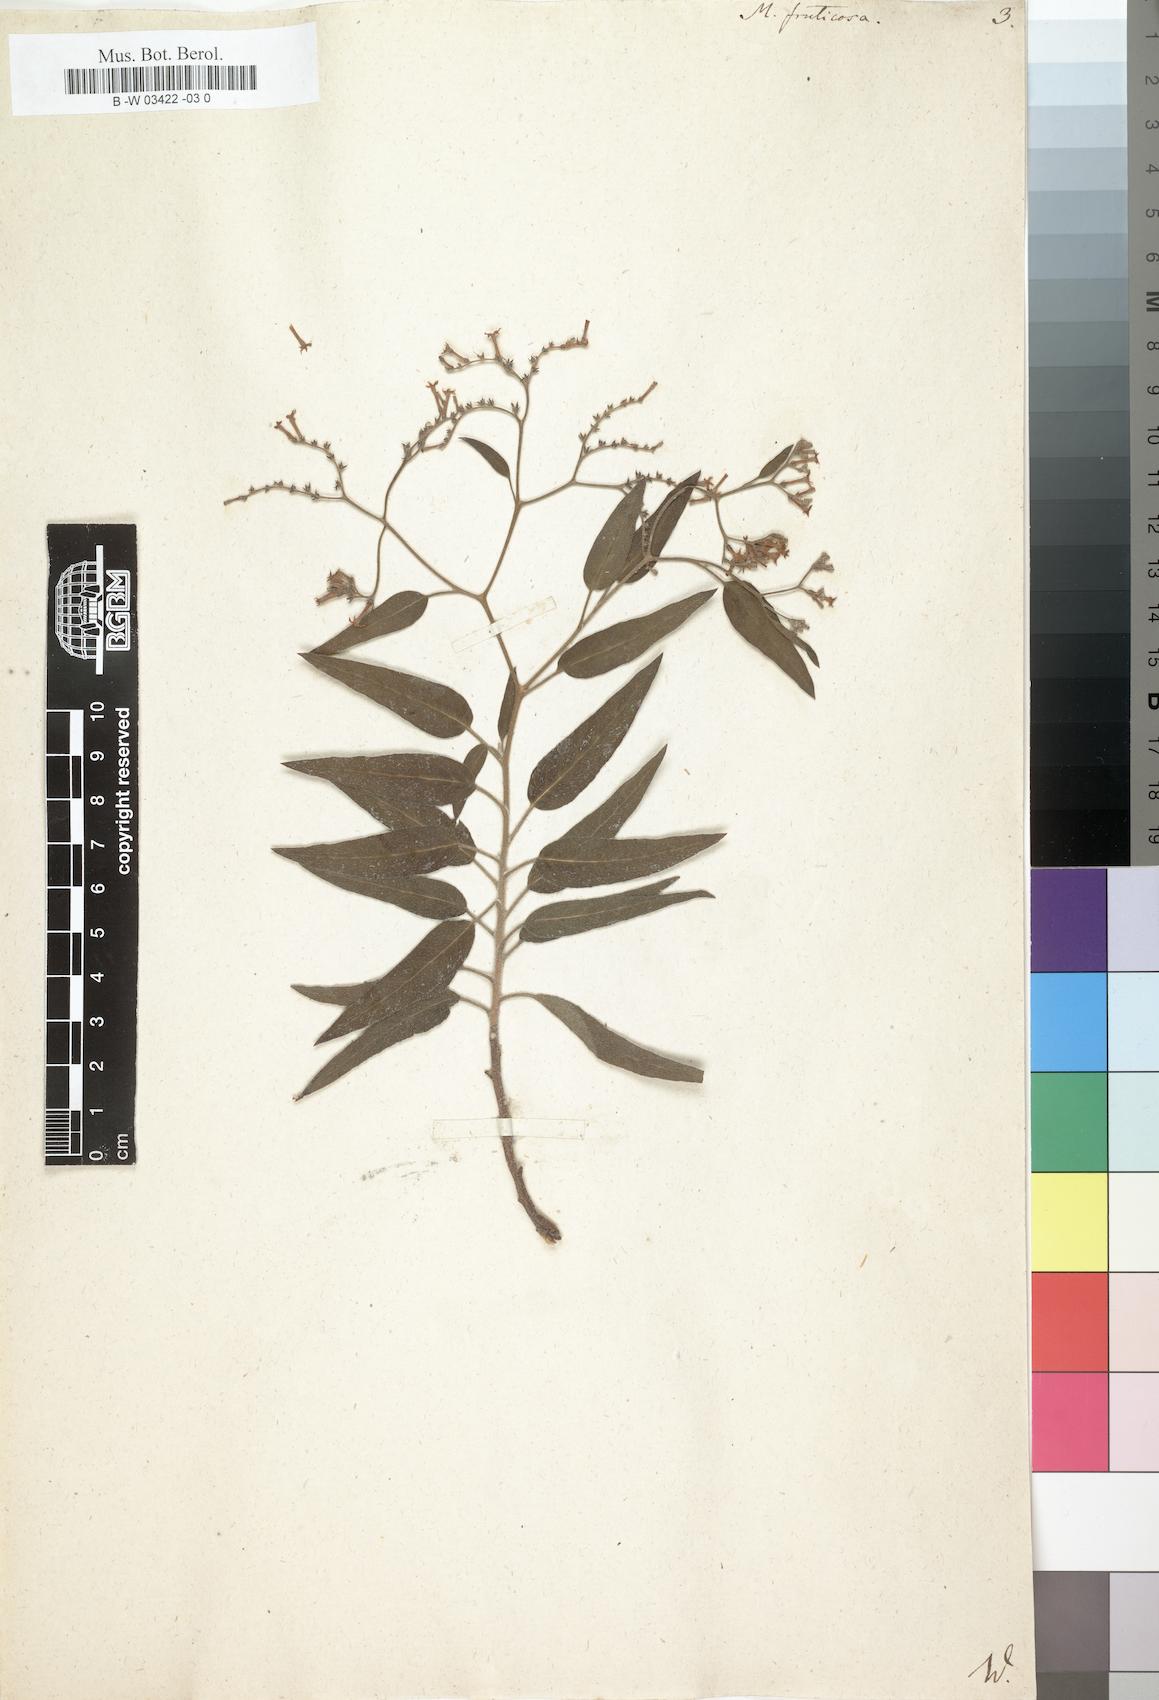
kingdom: Plantae
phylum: Tracheophyta
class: Magnoliopsida
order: Boraginales
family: Heliotropiaceae
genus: Heliotropium
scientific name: Heliotropium messerschmidioides
